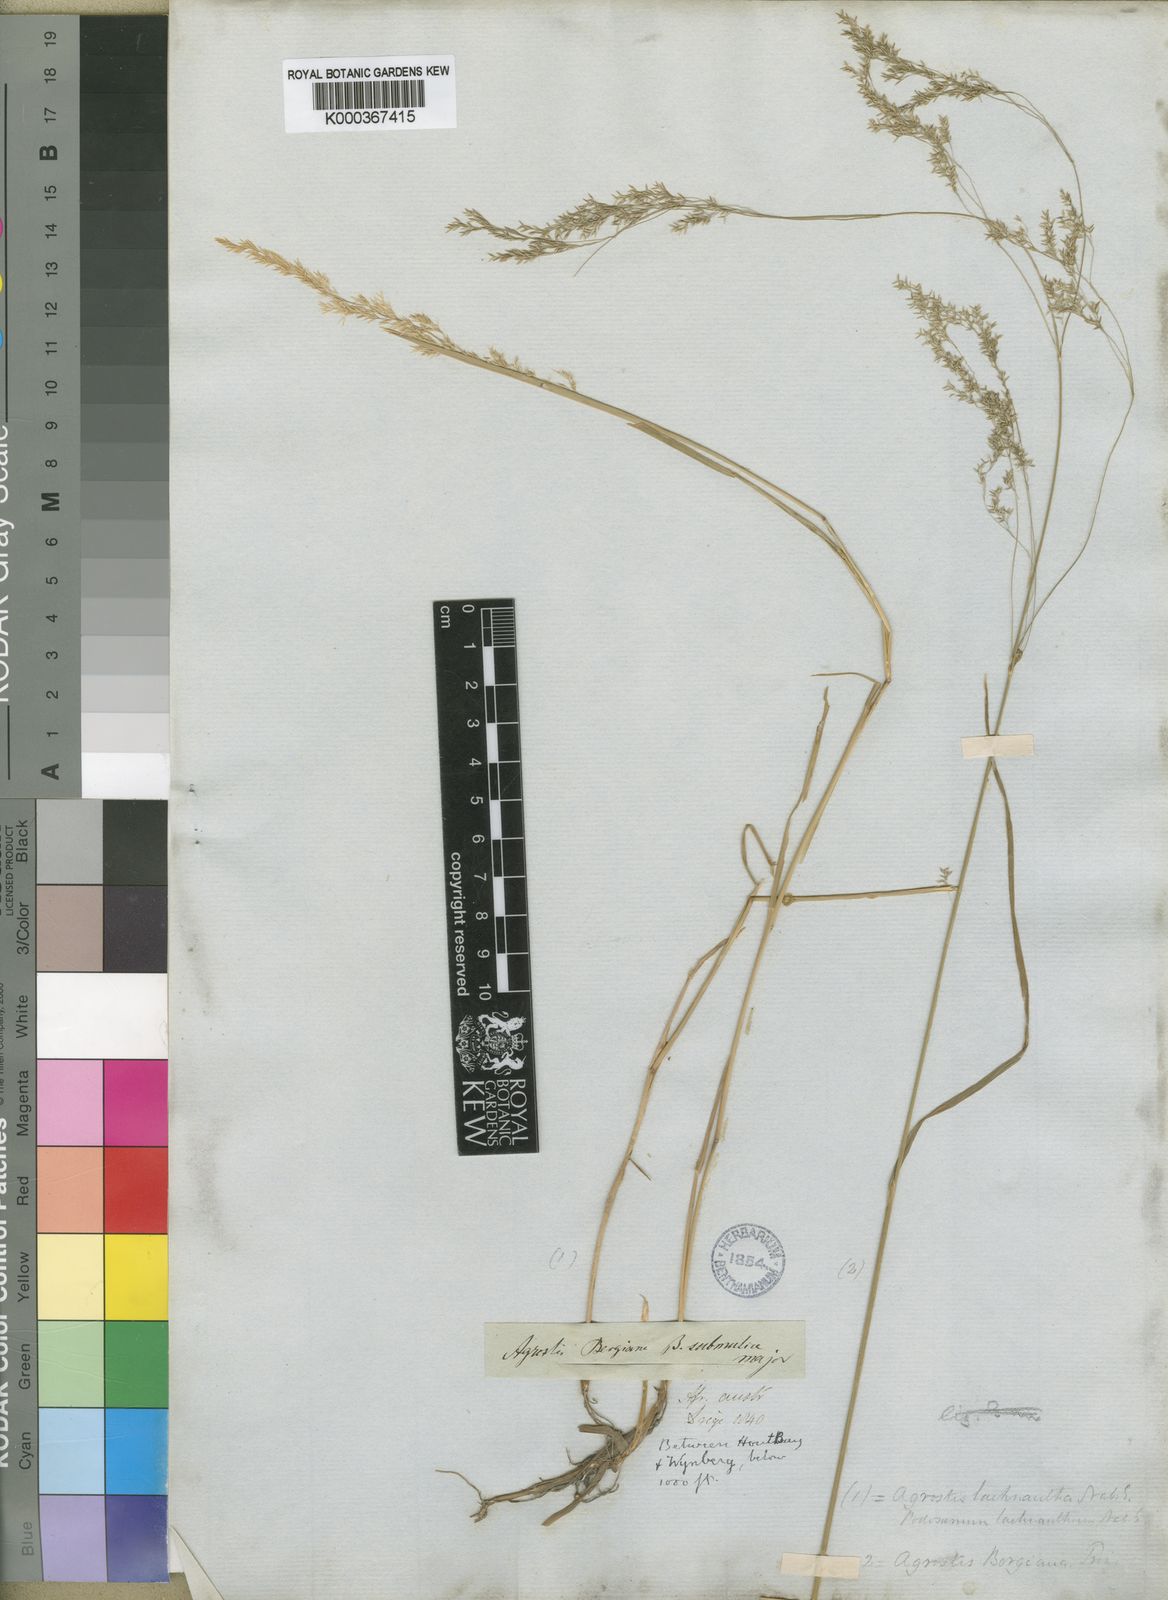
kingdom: Plantae
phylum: Tracheophyta
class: Liliopsida
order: Poales
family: Poaceae
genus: Agrostis
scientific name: Agrostis bergiana
